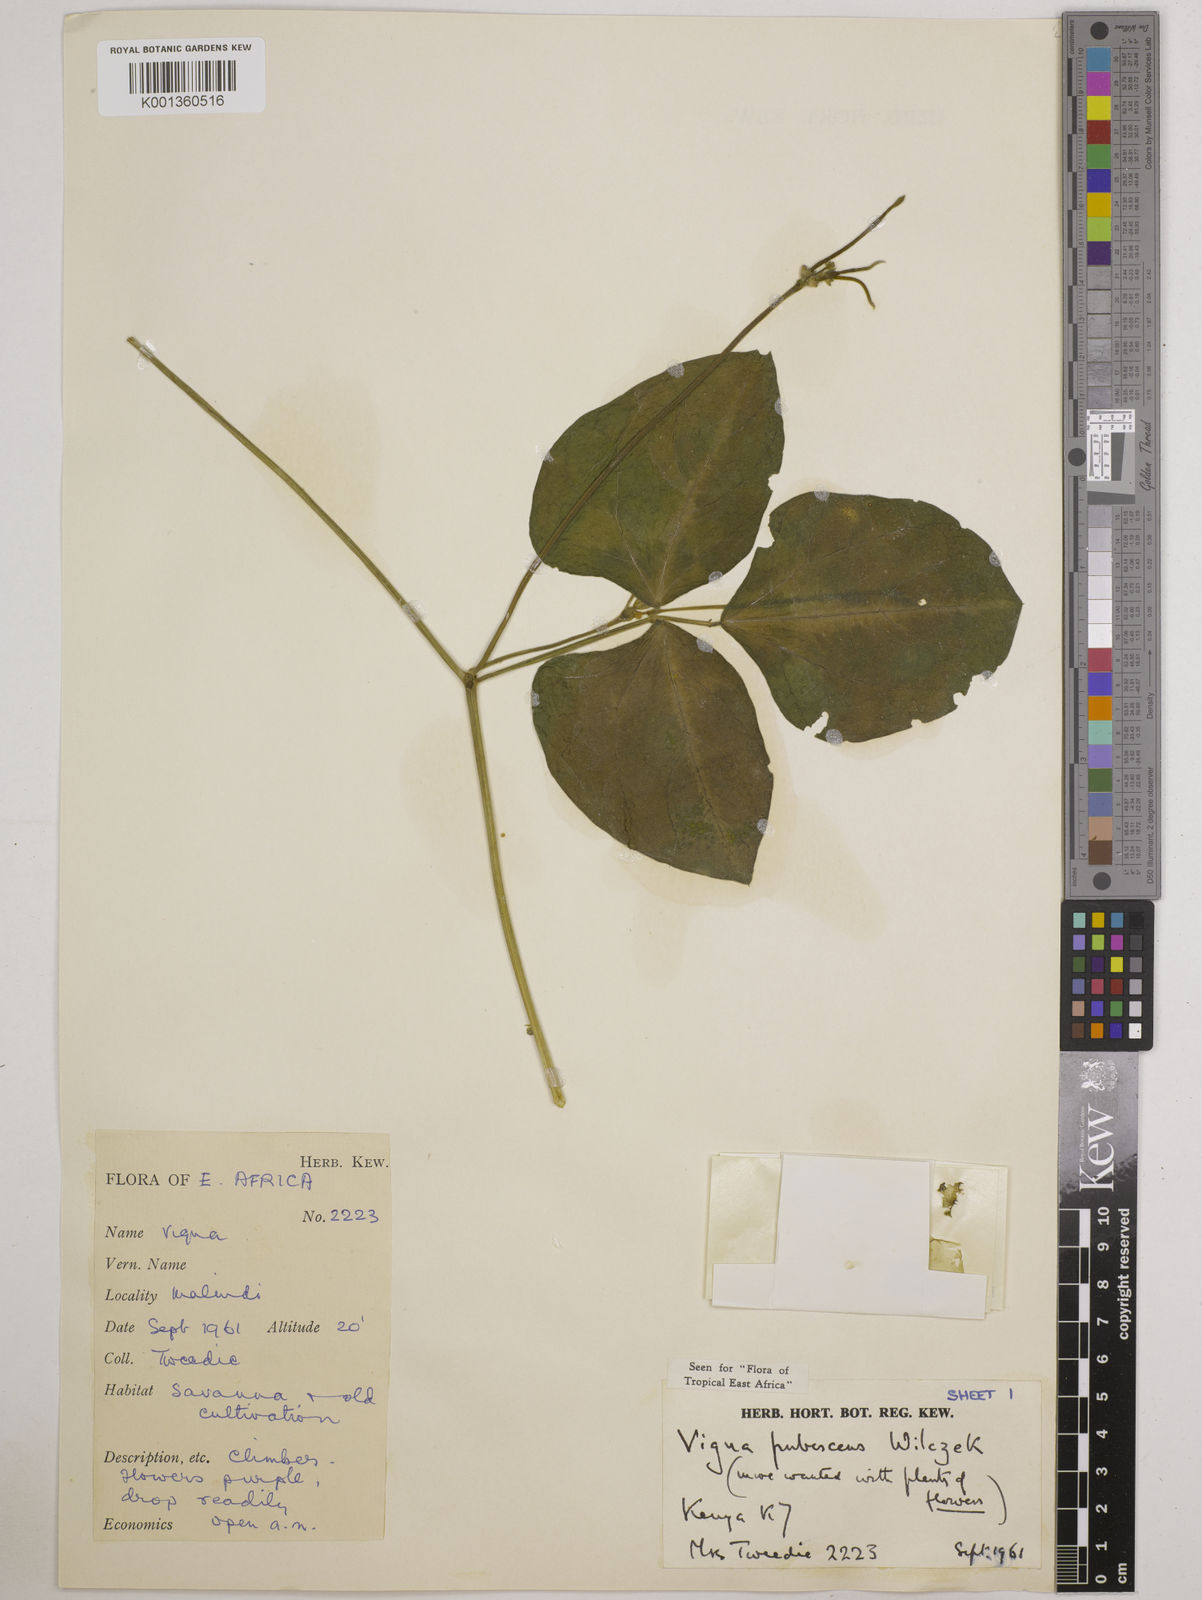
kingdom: Plantae
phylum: Tracheophyta
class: Magnoliopsida
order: Fabales
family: Fabaceae
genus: Vigna
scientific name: Vigna unguiculata
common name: Cowpea
